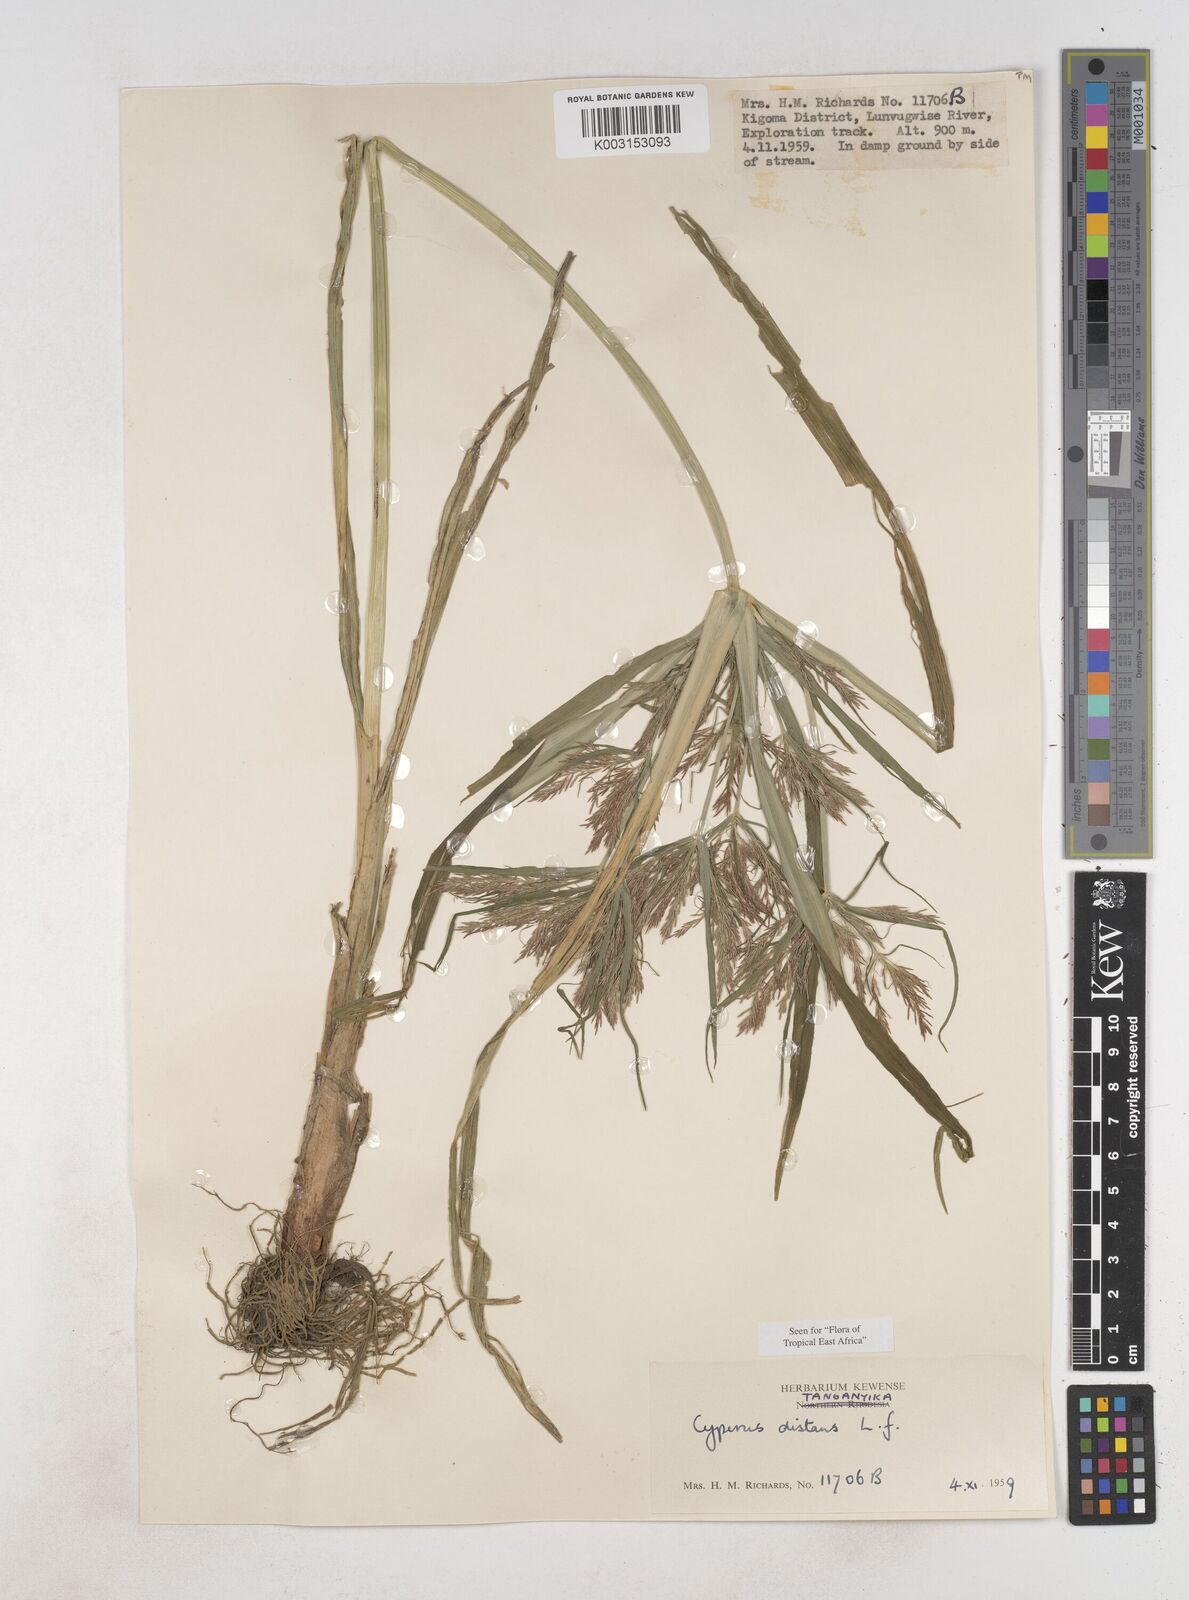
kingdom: Plantae
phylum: Tracheophyta
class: Liliopsida
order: Poales
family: Cyperaceae
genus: Cyperus
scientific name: Cyperus distans
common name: Slender cyperus
